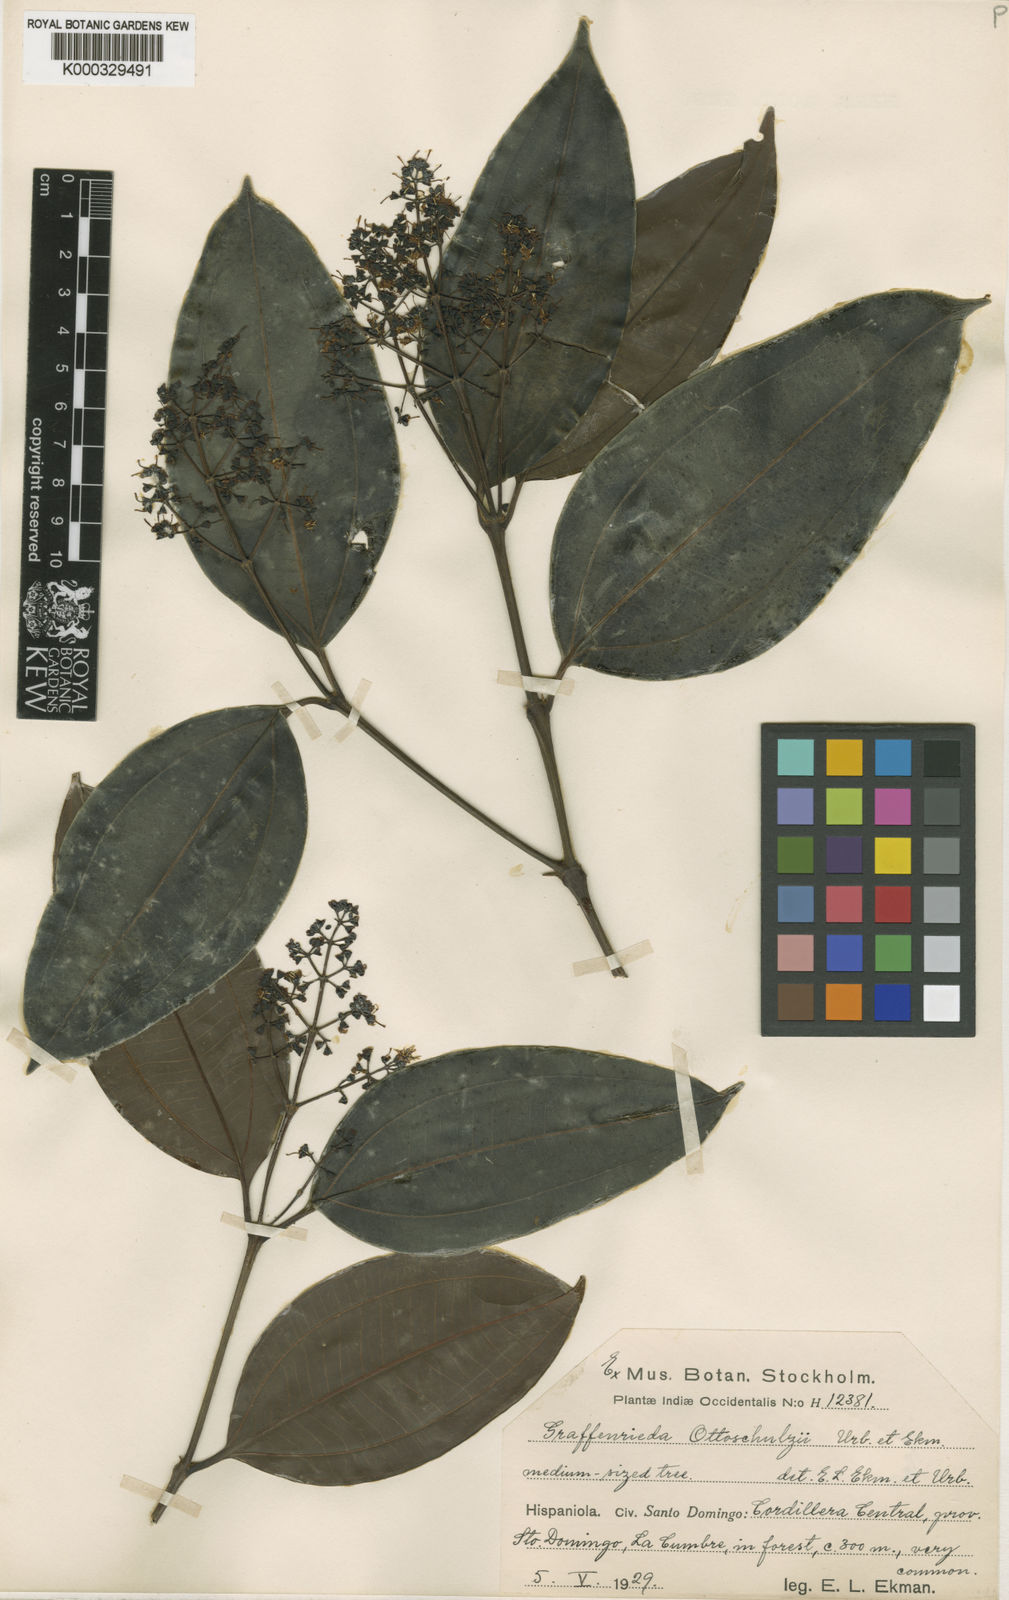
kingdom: Plantae
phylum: Tracheophyta
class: Magnoliopsida
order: Myrtales
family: Melastomataceae
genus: Graffenrieda
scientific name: Graffenrieda ottoschulzii
